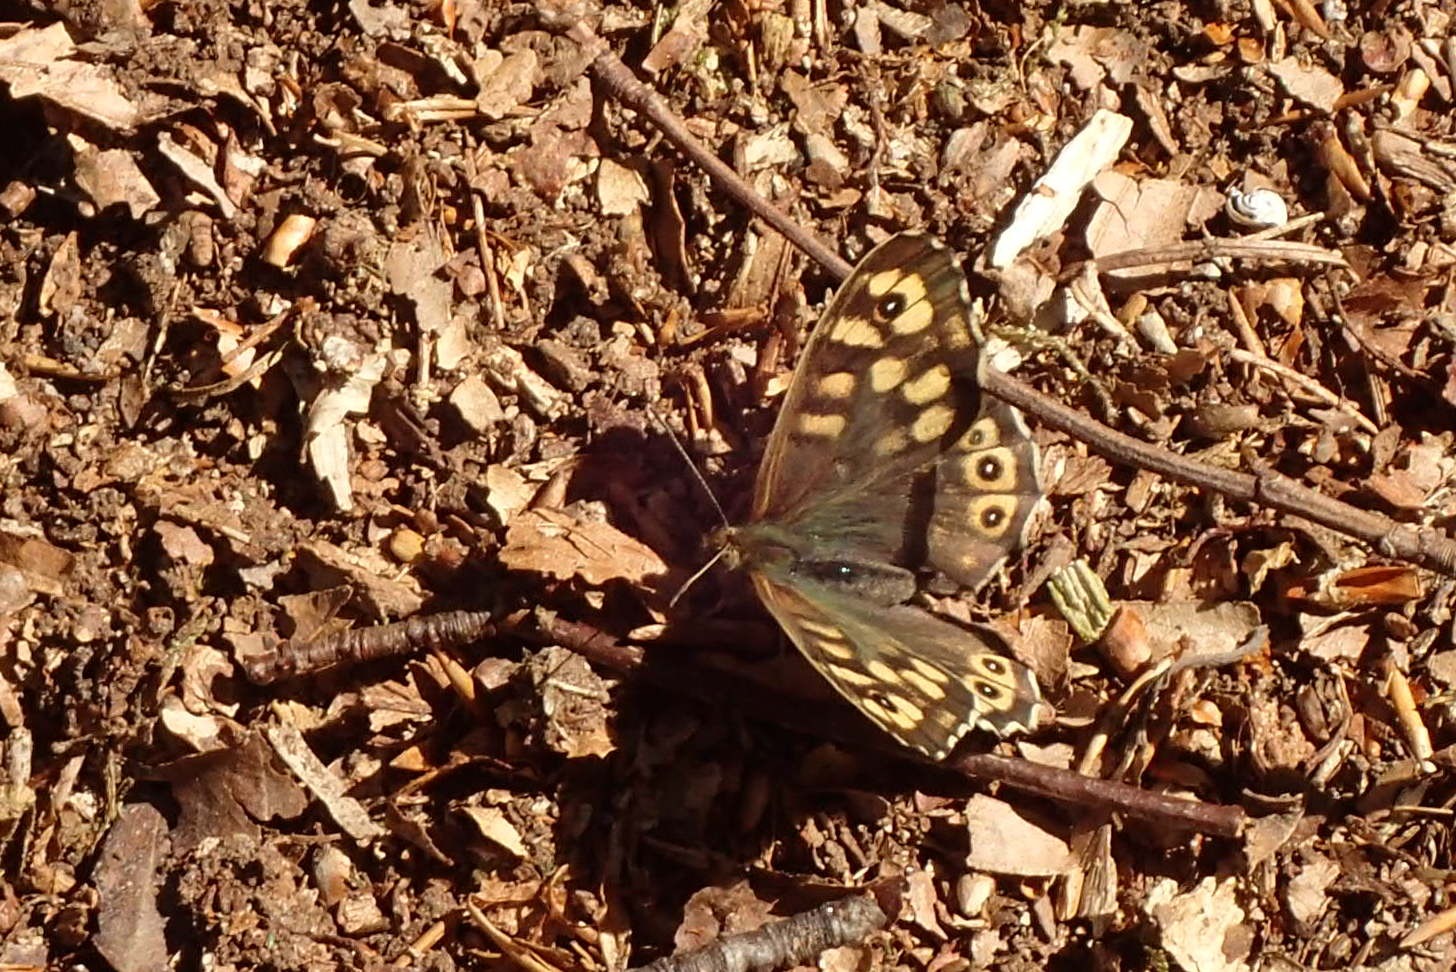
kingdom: Animalia
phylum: Arthropoda
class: Insecta
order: Lepidoptera
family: Nymphalidae
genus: Pararge
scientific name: Pararge aegeria
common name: Skovrandøje
